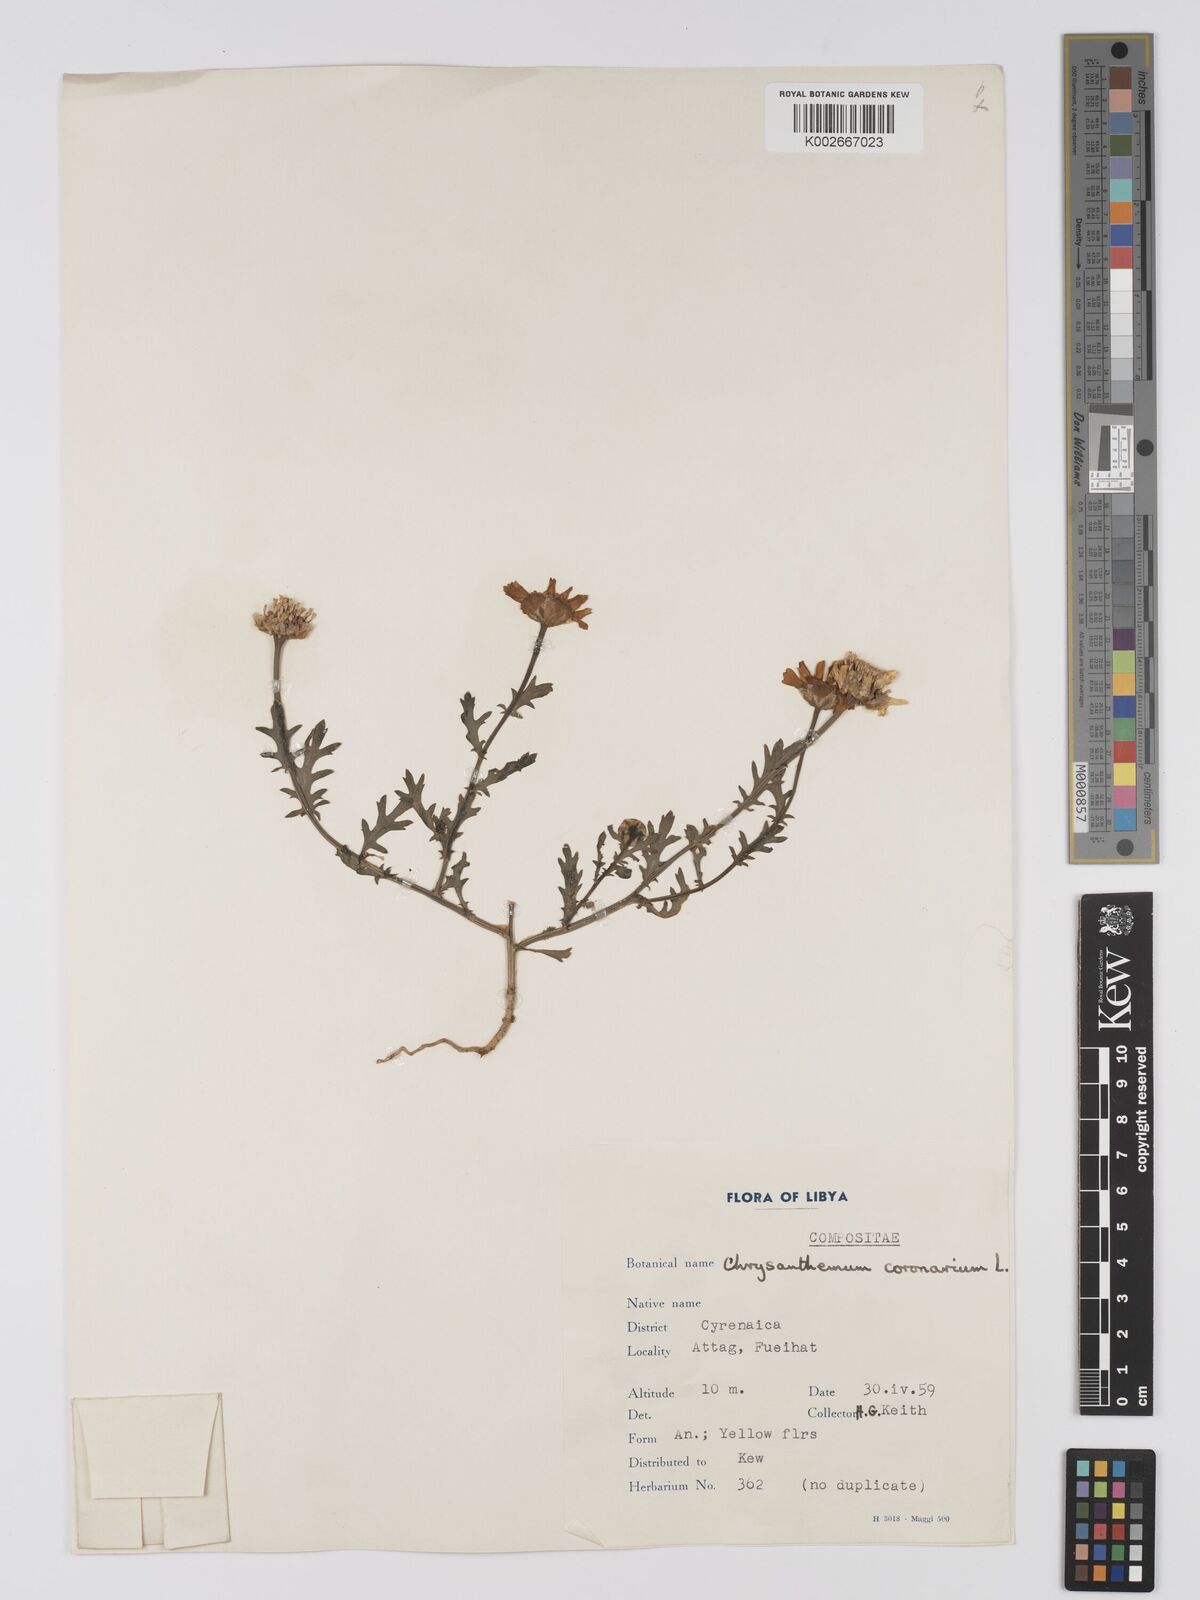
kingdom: Plantae
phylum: Tracheophyta
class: Magnoliopsida
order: Asterales
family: Asteraceae
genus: Glebionis
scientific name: Glebionis coronaria
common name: Crowndaisy
